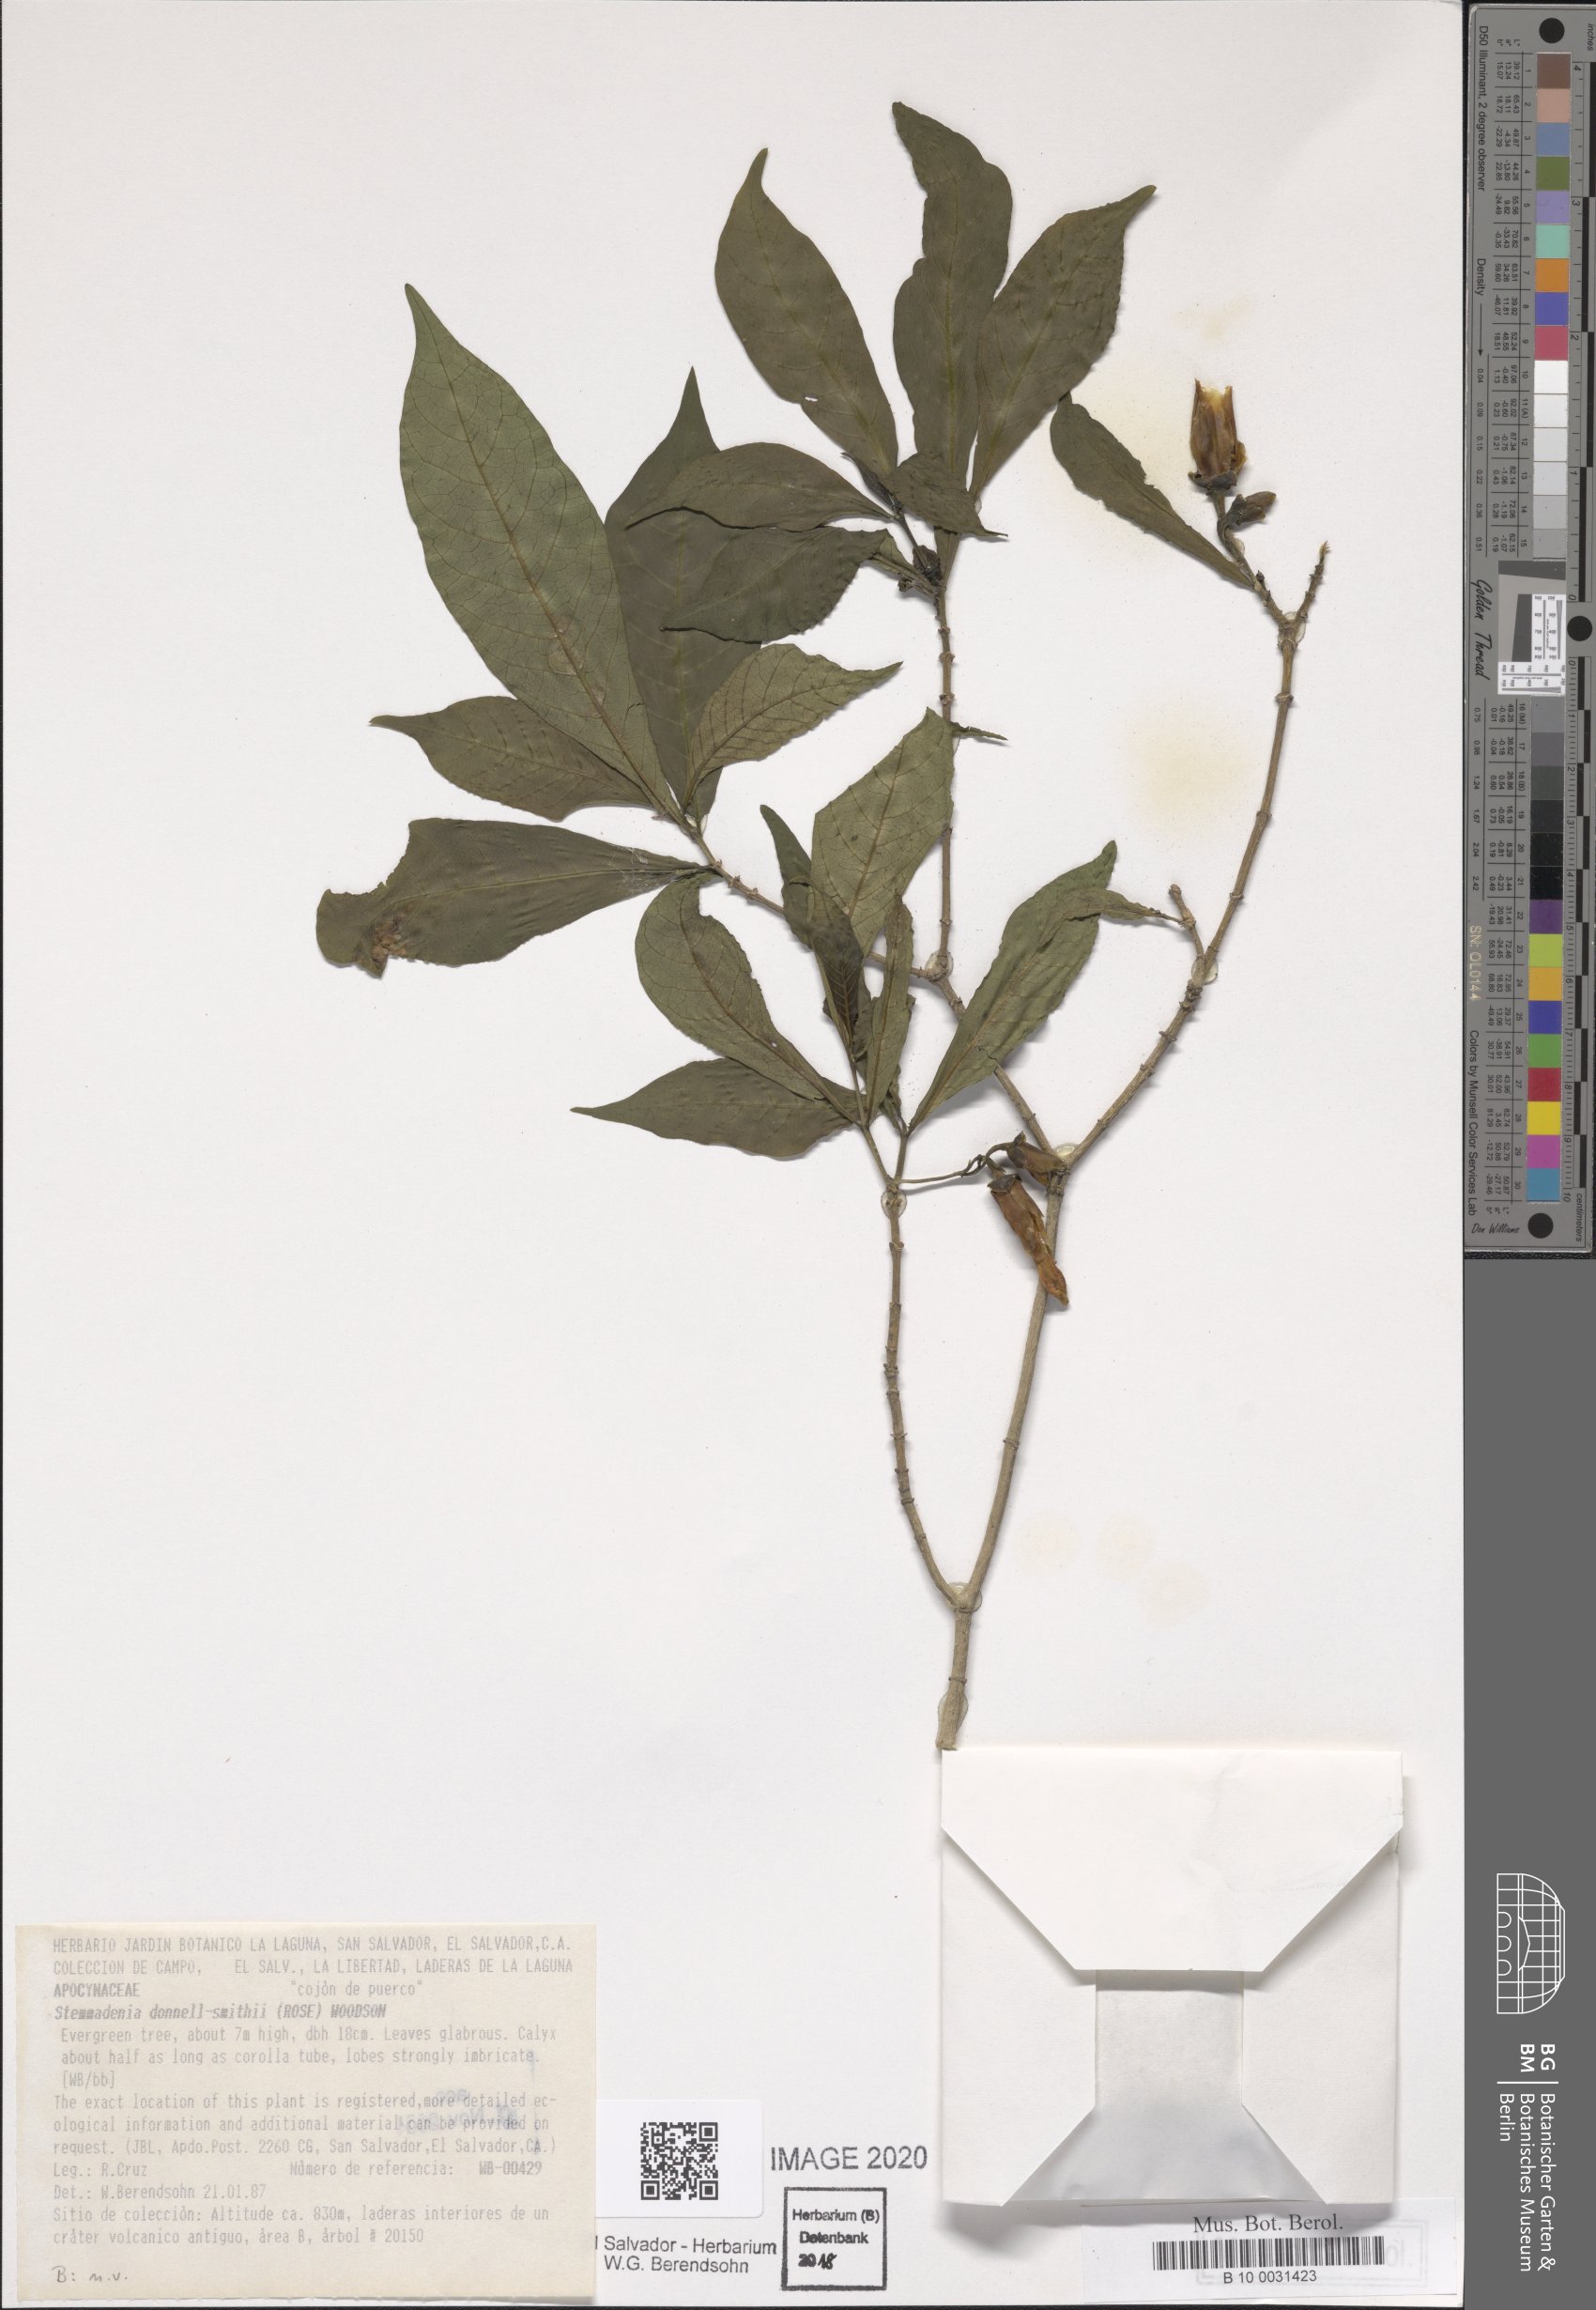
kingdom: Plantae
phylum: Tracheophyta
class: Magnoliopsida
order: Gentianales
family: Apocynaceae
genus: Tabernaemontana
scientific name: Tabernaemontana donnell-smithii
